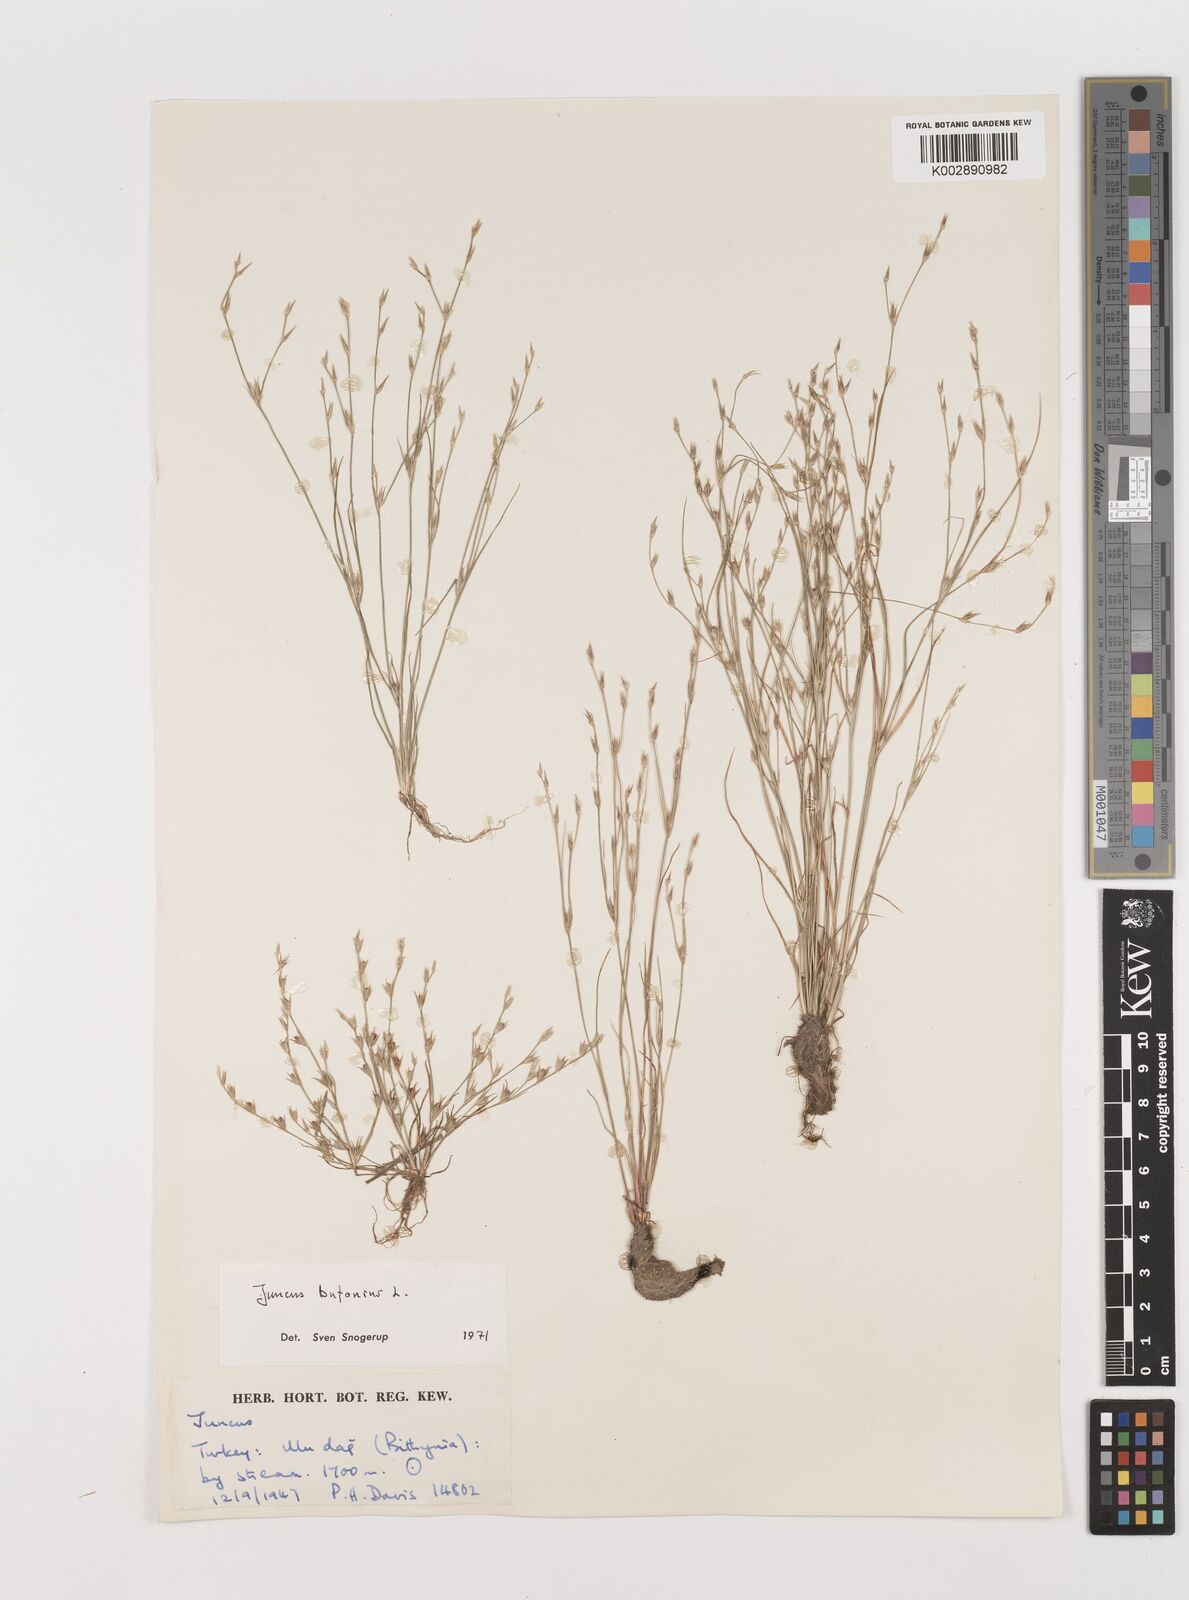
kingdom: Plantae
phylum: Tracheophyta
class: Liliopsida
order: Poales
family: Juncaceae
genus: Juncus
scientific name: Juncus bufonius
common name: Toad rush
